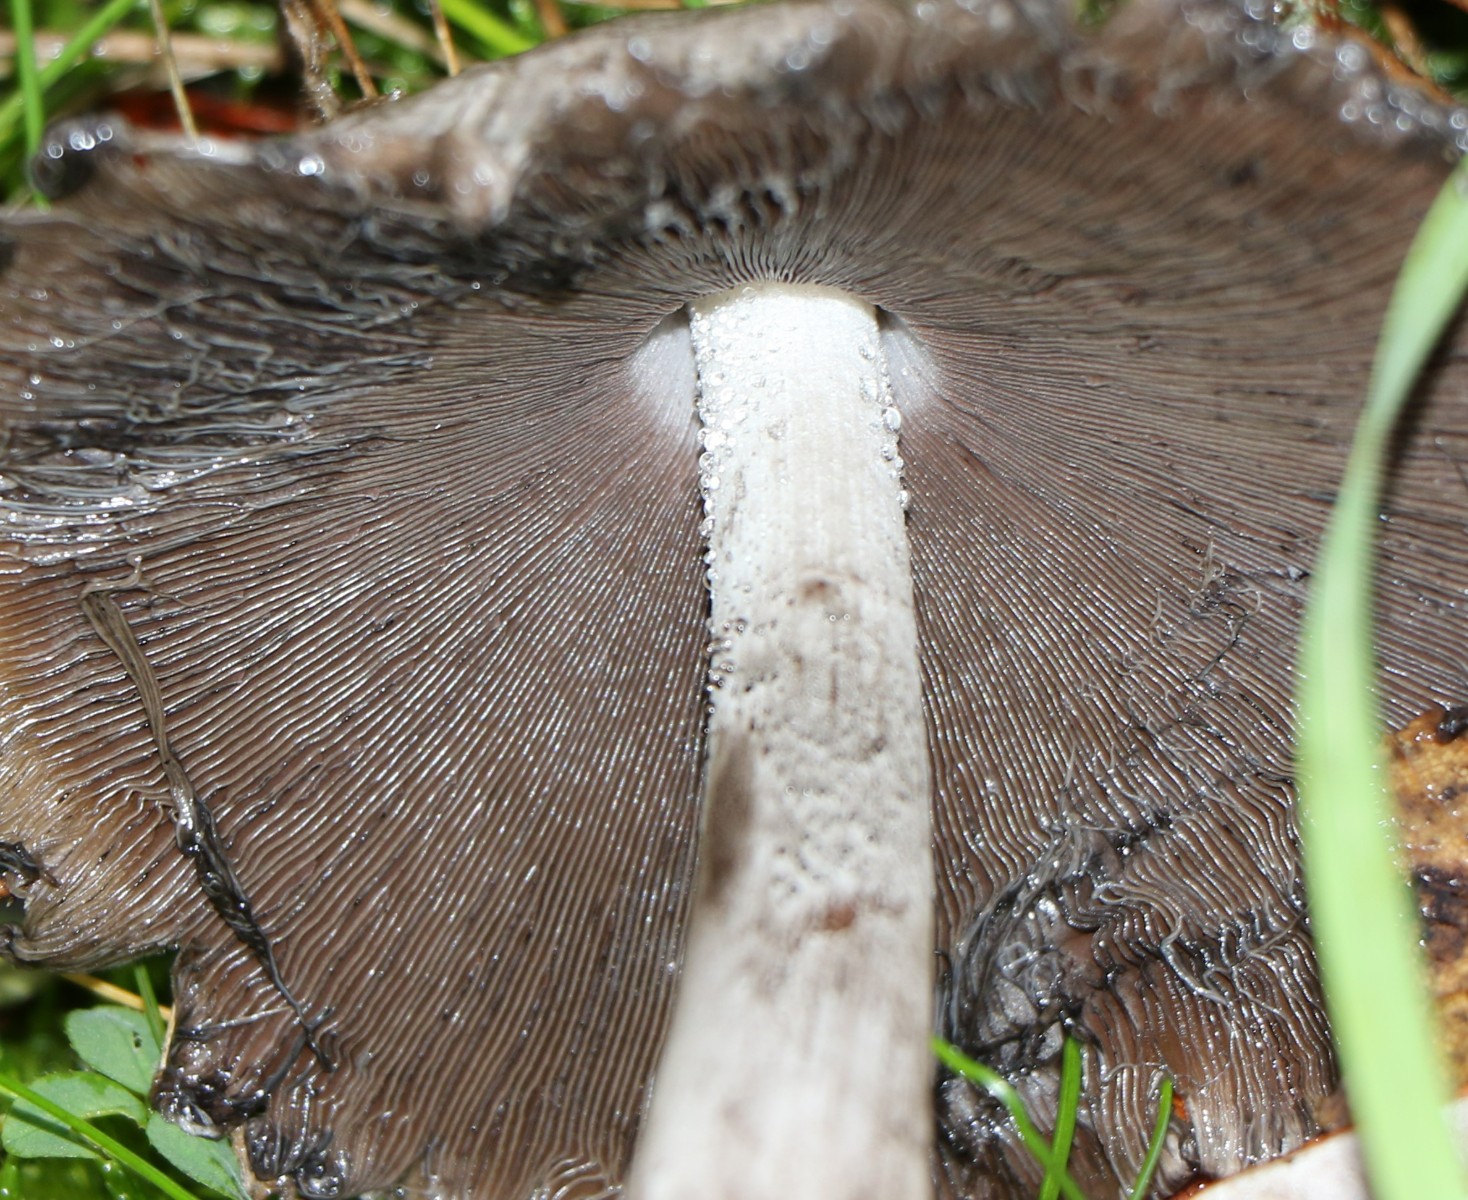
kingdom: Fungi
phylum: Basidiomycota
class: Agaricomycetes
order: Agaricales
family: Psathyrellaceae
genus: Coprinellus
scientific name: Coprinellus
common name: blækhat
